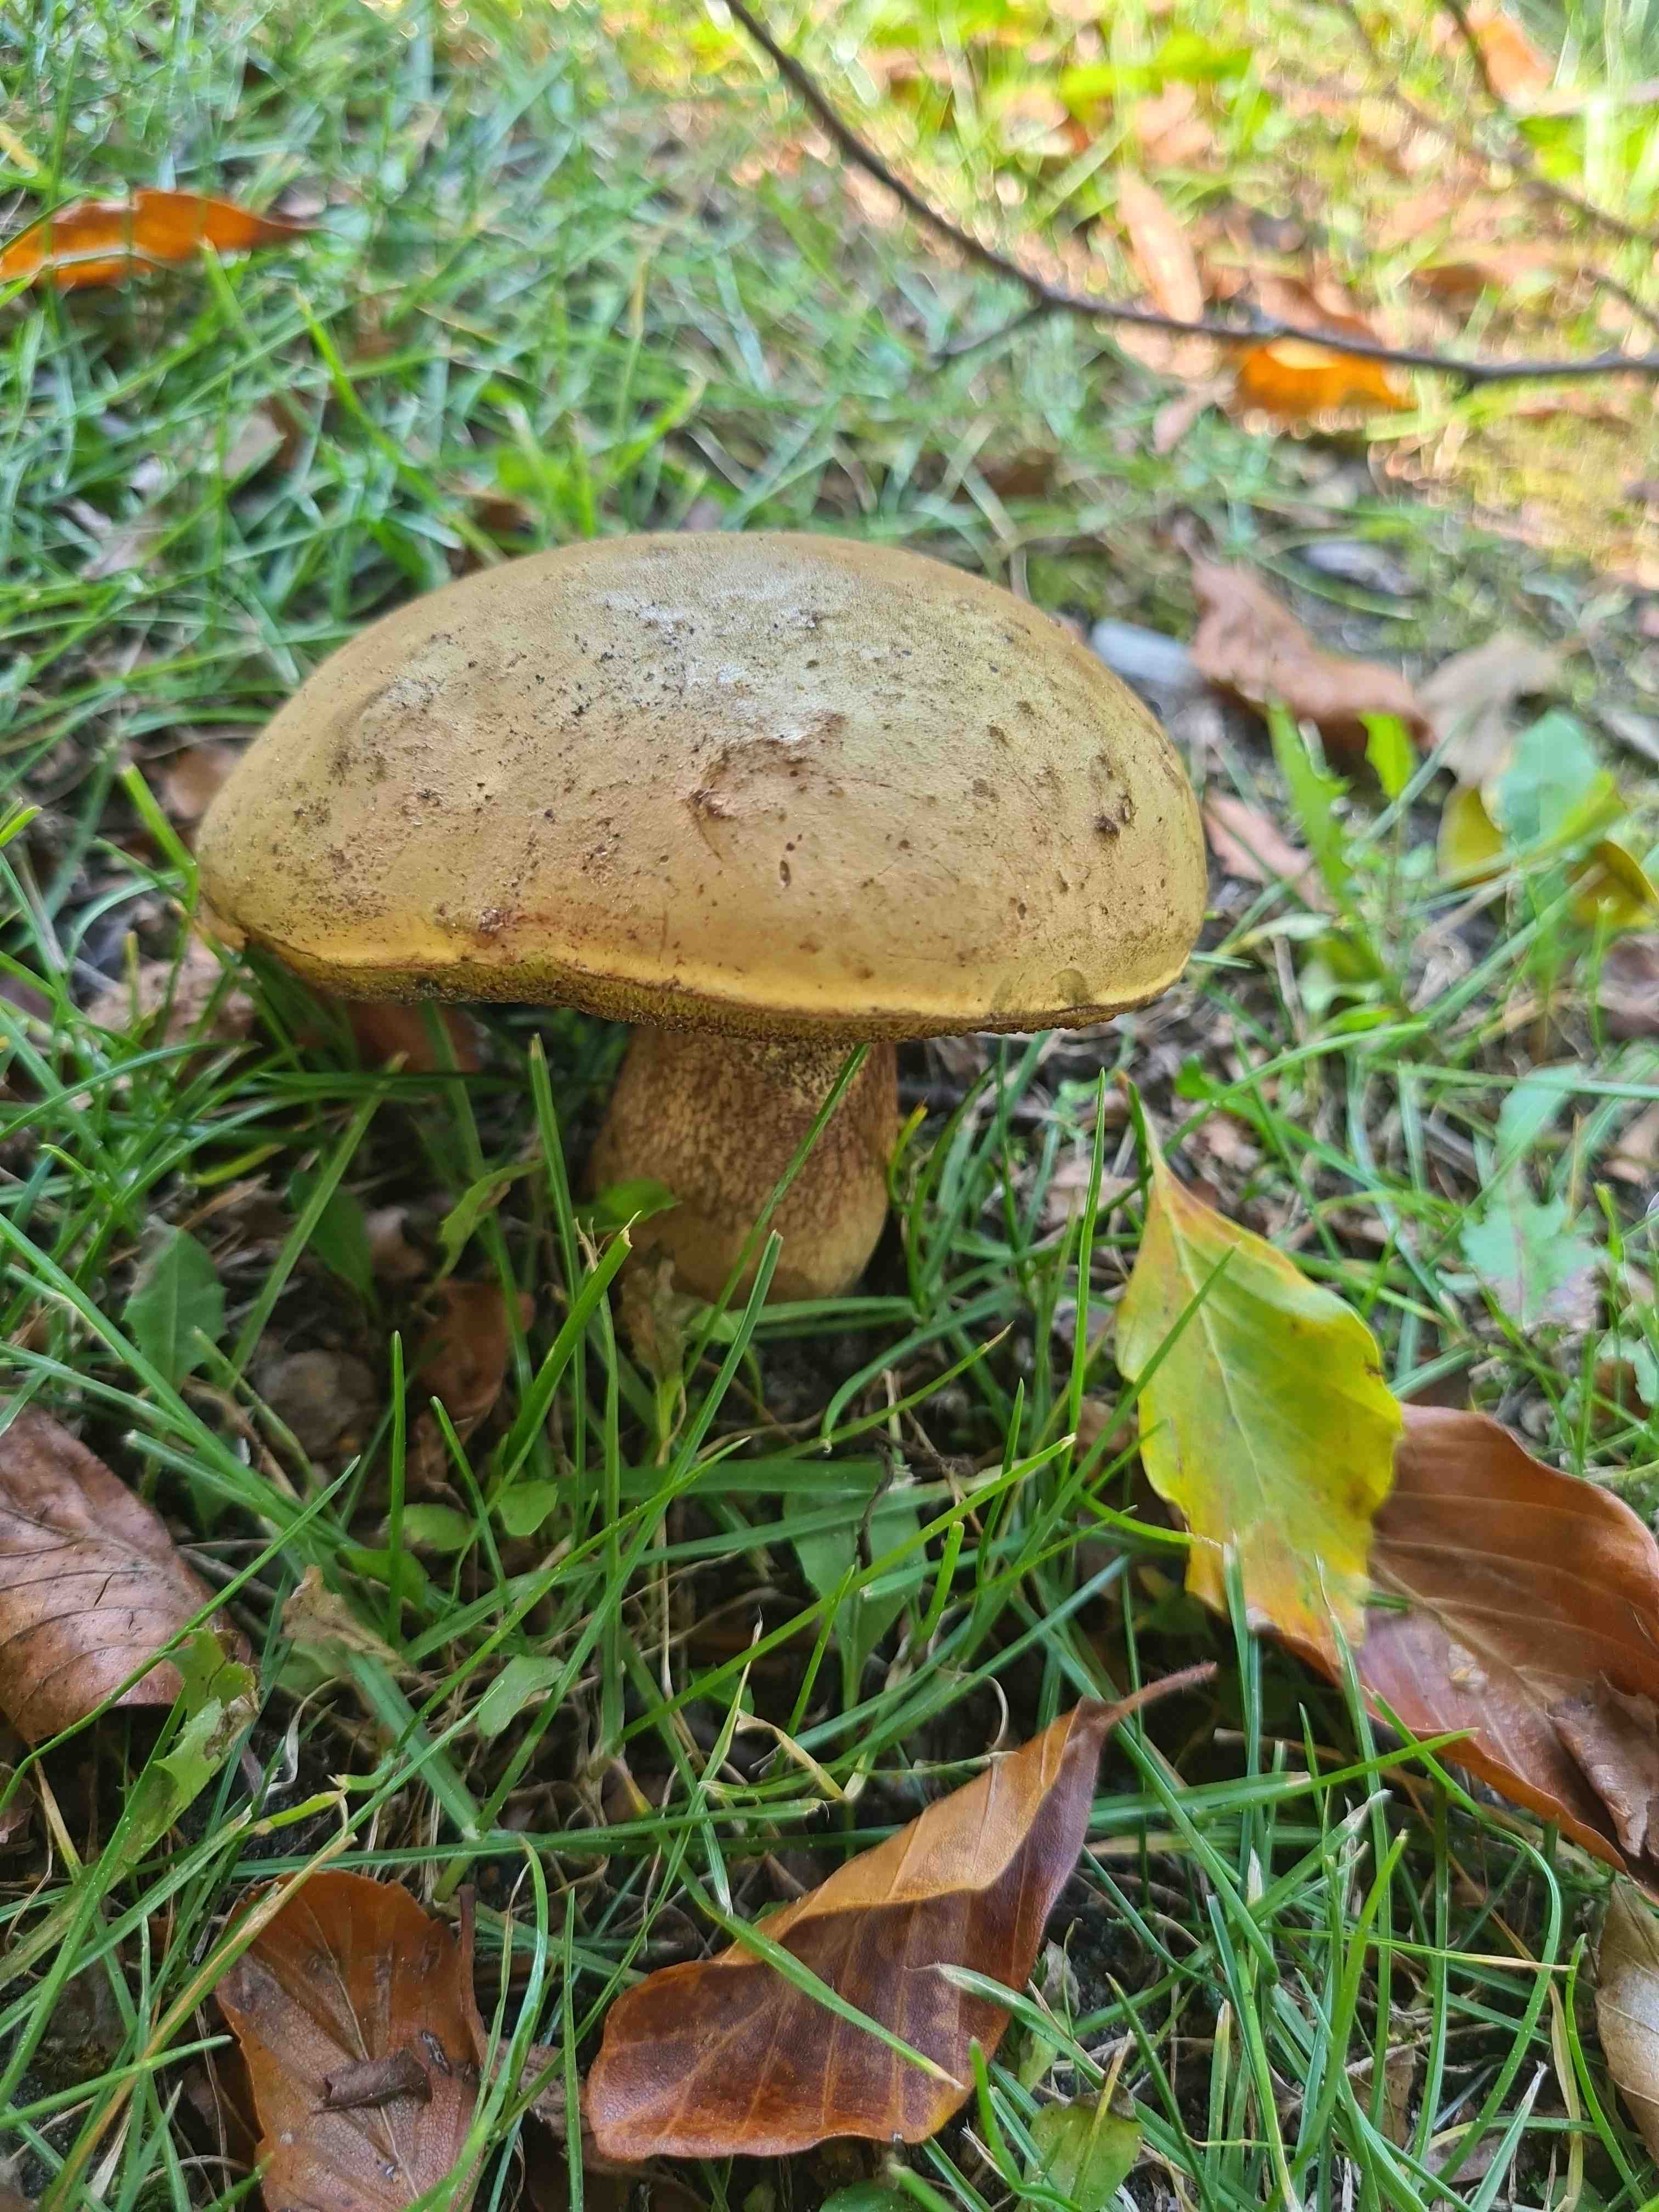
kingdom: Fungi
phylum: Basidiomycota
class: Agaricomycetes
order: Boletales
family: Boletaceae
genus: Suillellus
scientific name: Suillellus luridus
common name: netstokket indigorørhat
